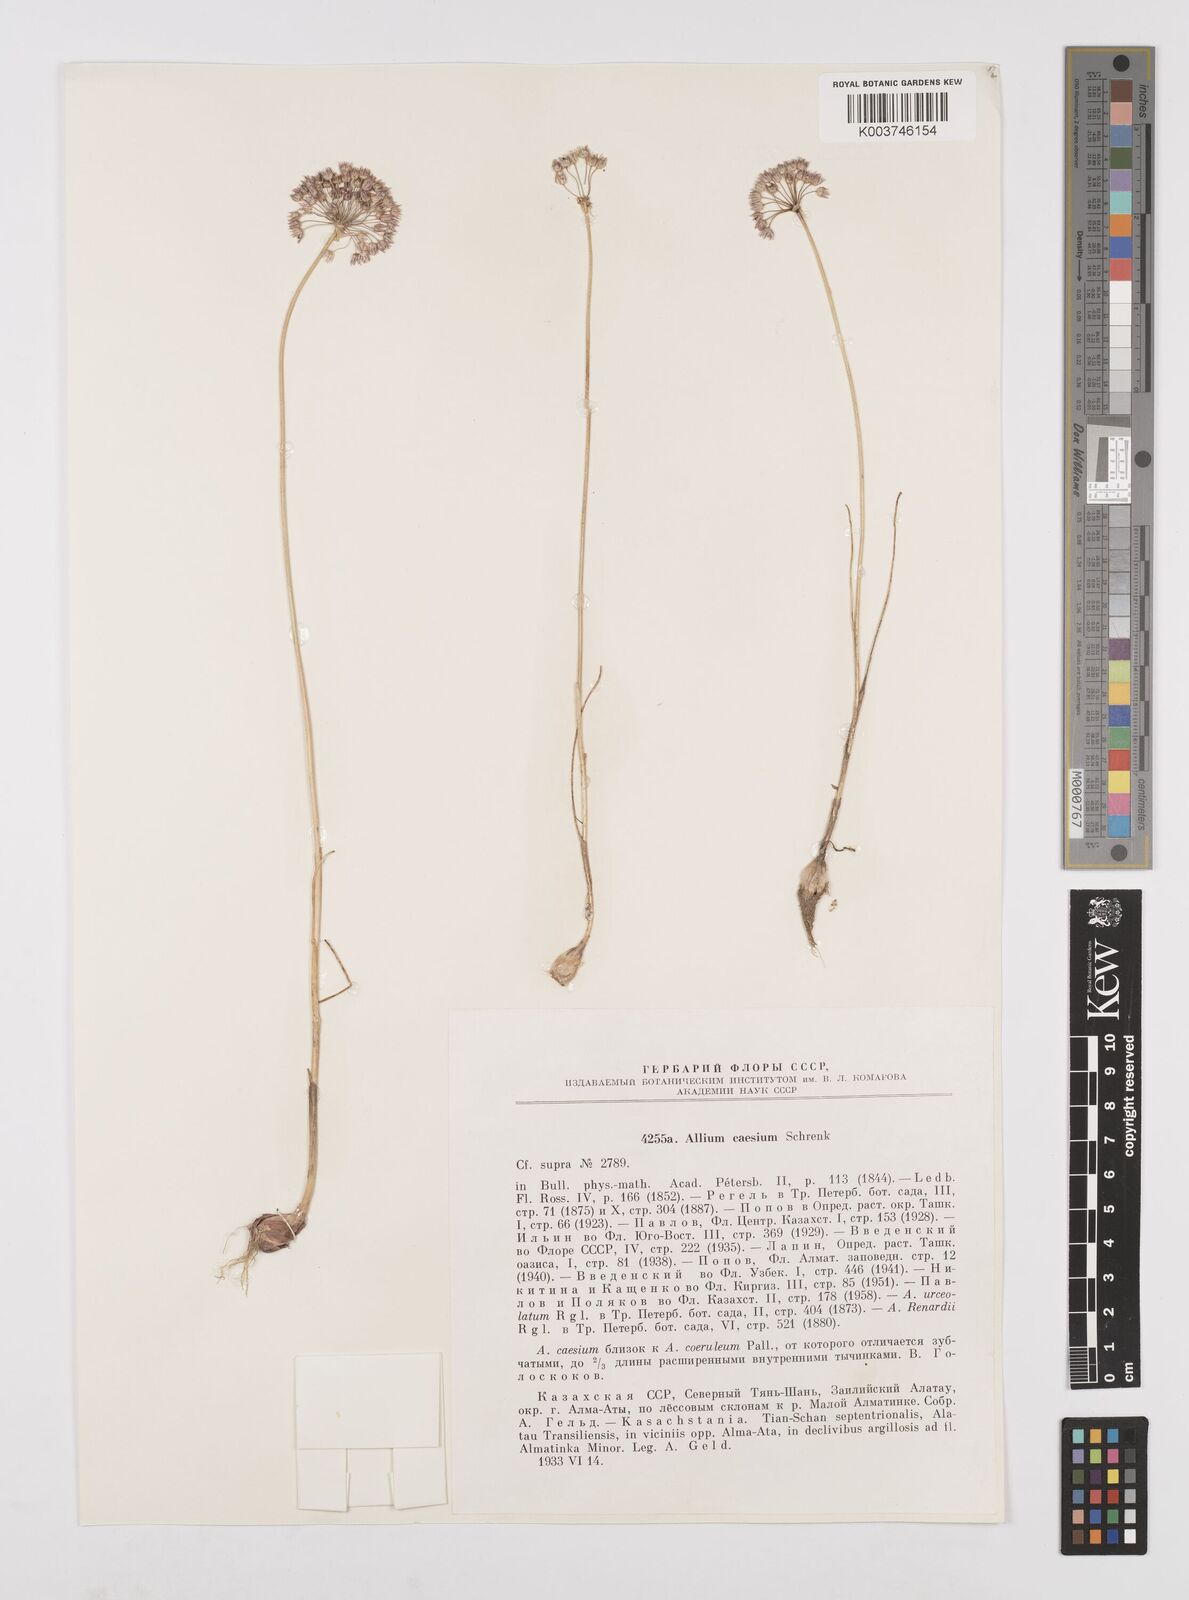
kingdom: Plantae
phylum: Tracheophyta
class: Liliopsida
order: Asparagales
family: Amaryllidaceae
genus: Allium
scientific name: Allium caesium
